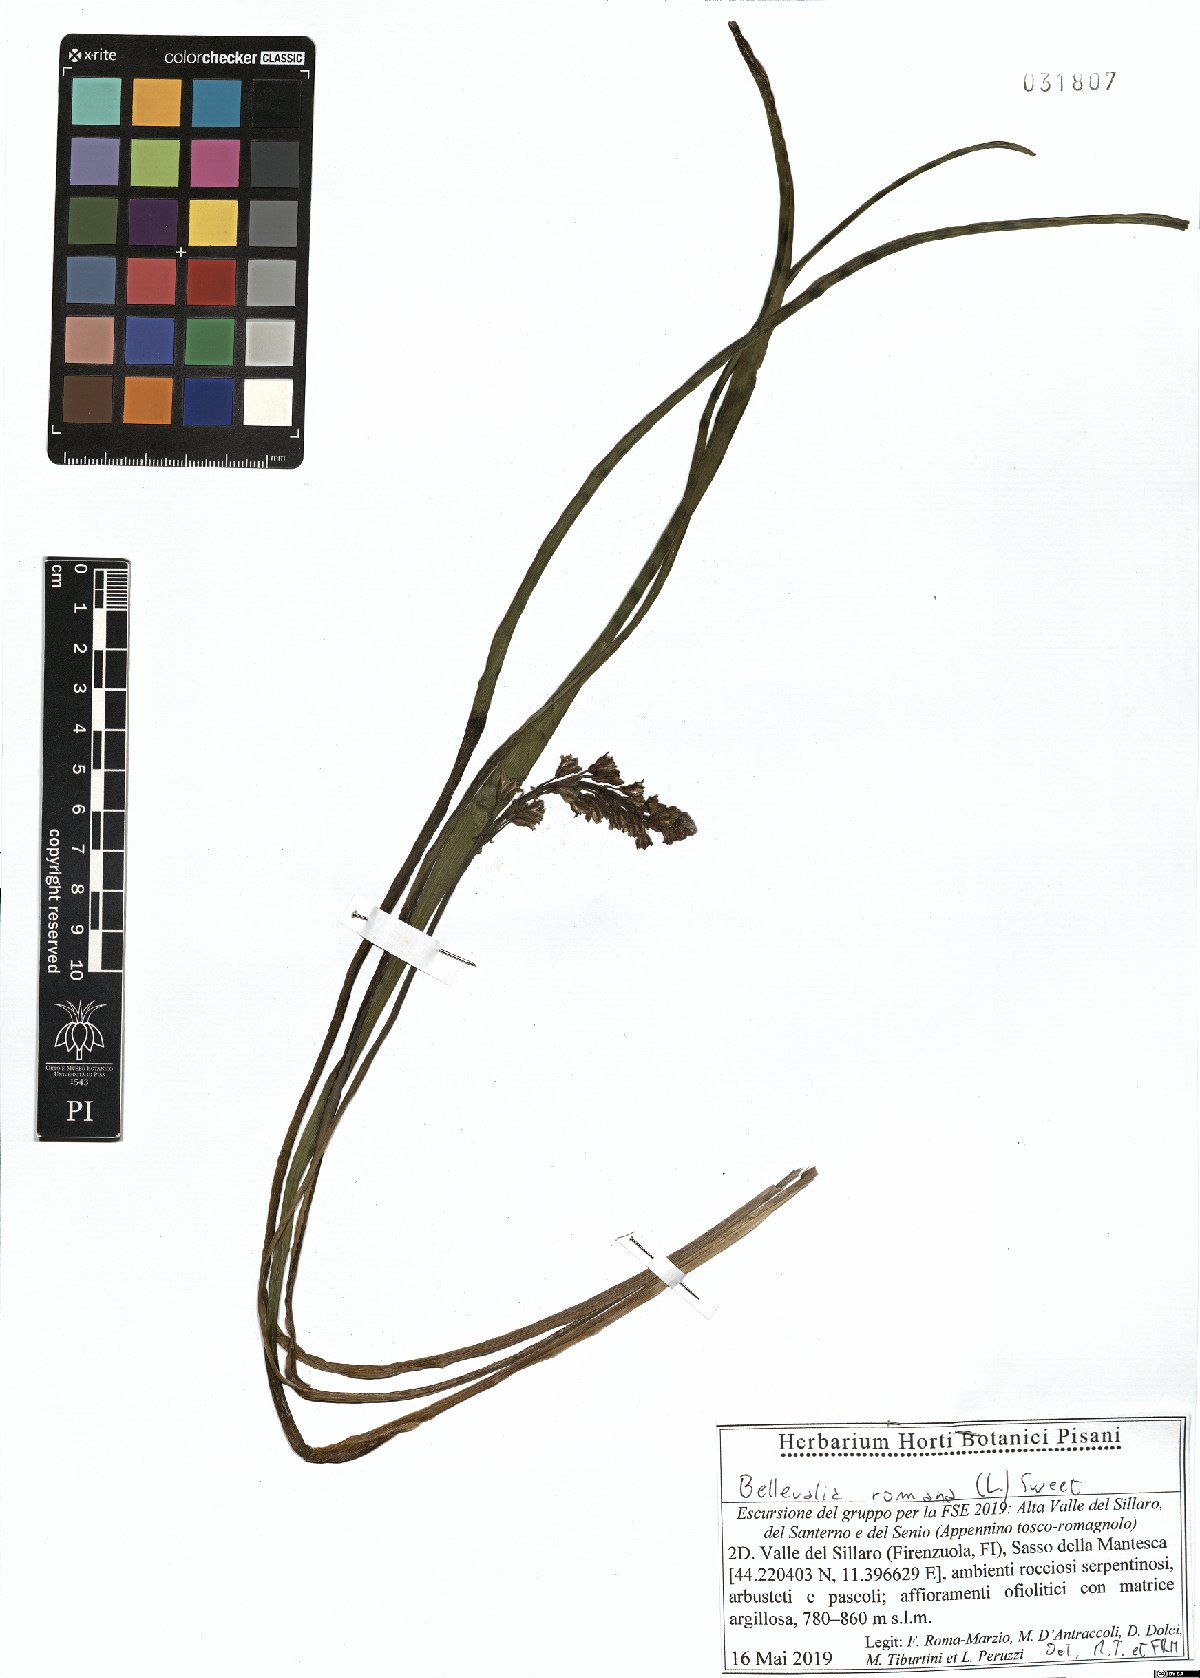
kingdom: Plantae
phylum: Tracheophyta
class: Liliopsida
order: Asparagales
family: Asparagaceae
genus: Bellevalia
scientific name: Bellevalia romana
